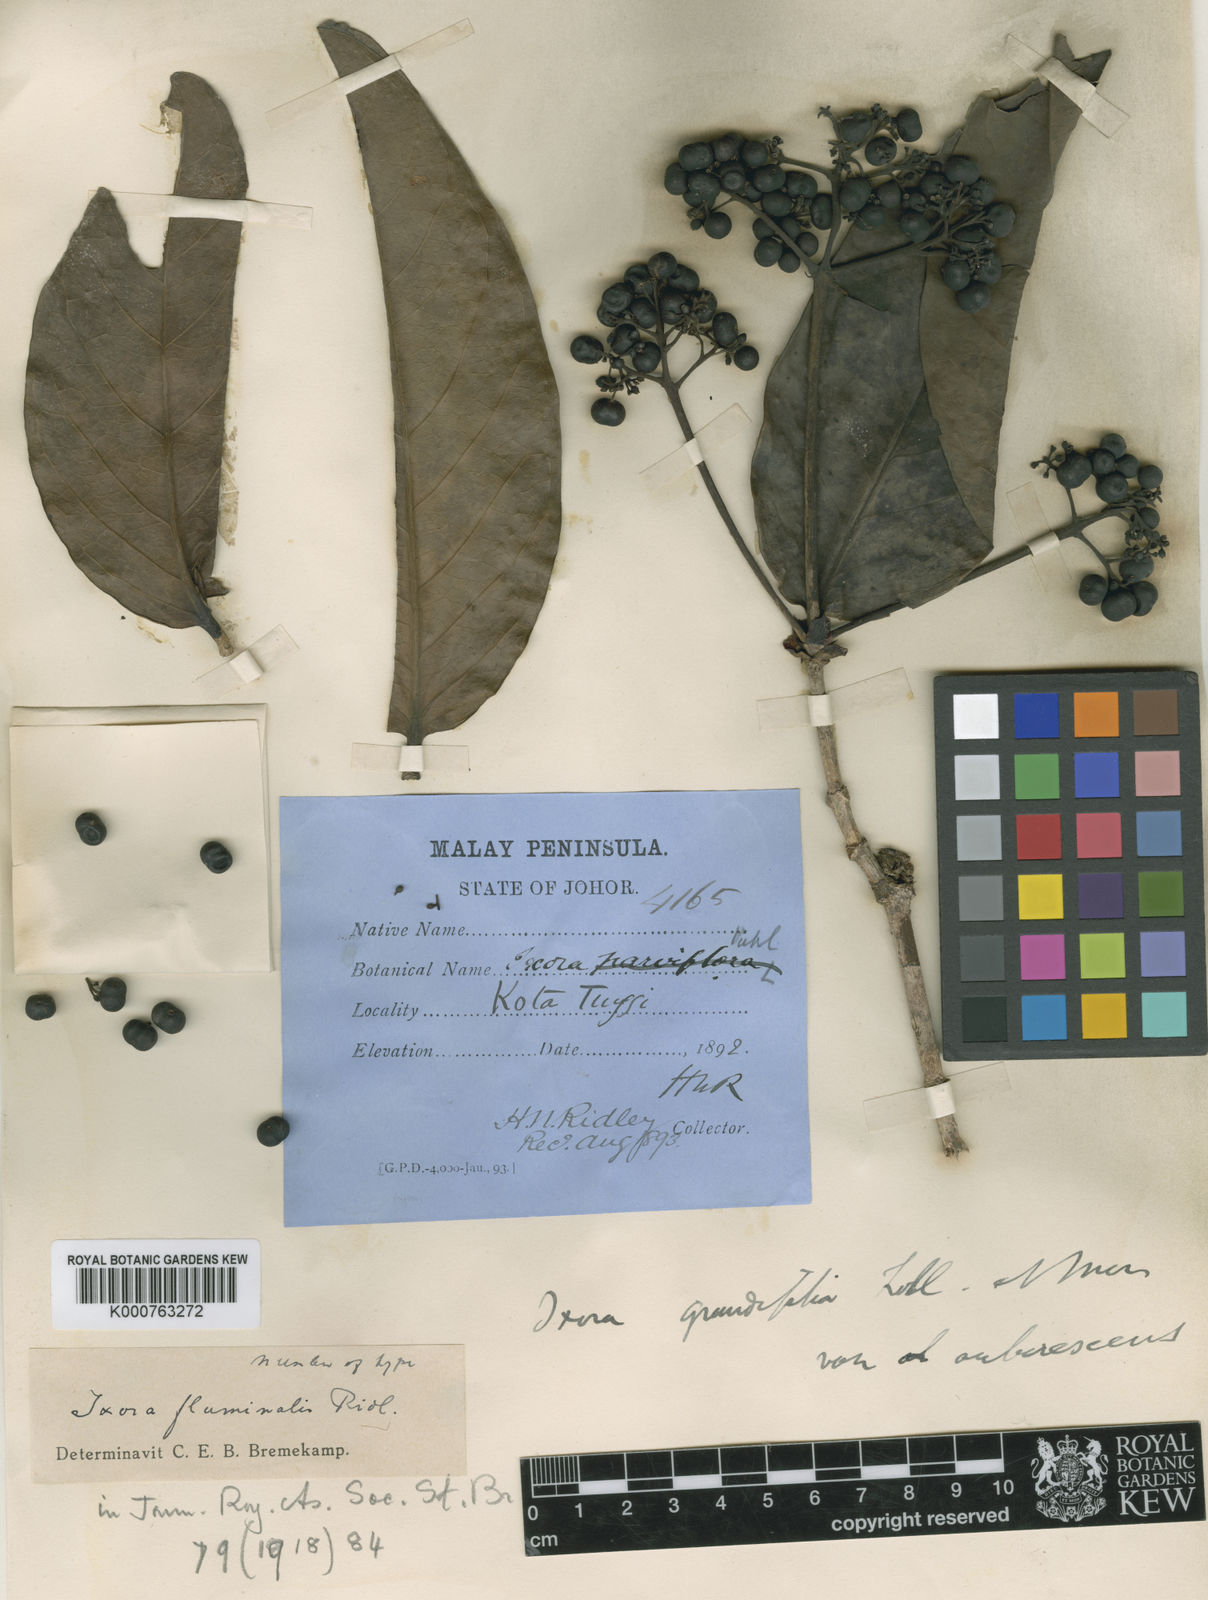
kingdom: Plantae
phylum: Tracheophyta
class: Magnoliopsida
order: Gentianales
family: Rubiaceae
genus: Ixora
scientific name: Ixora grandifolia
